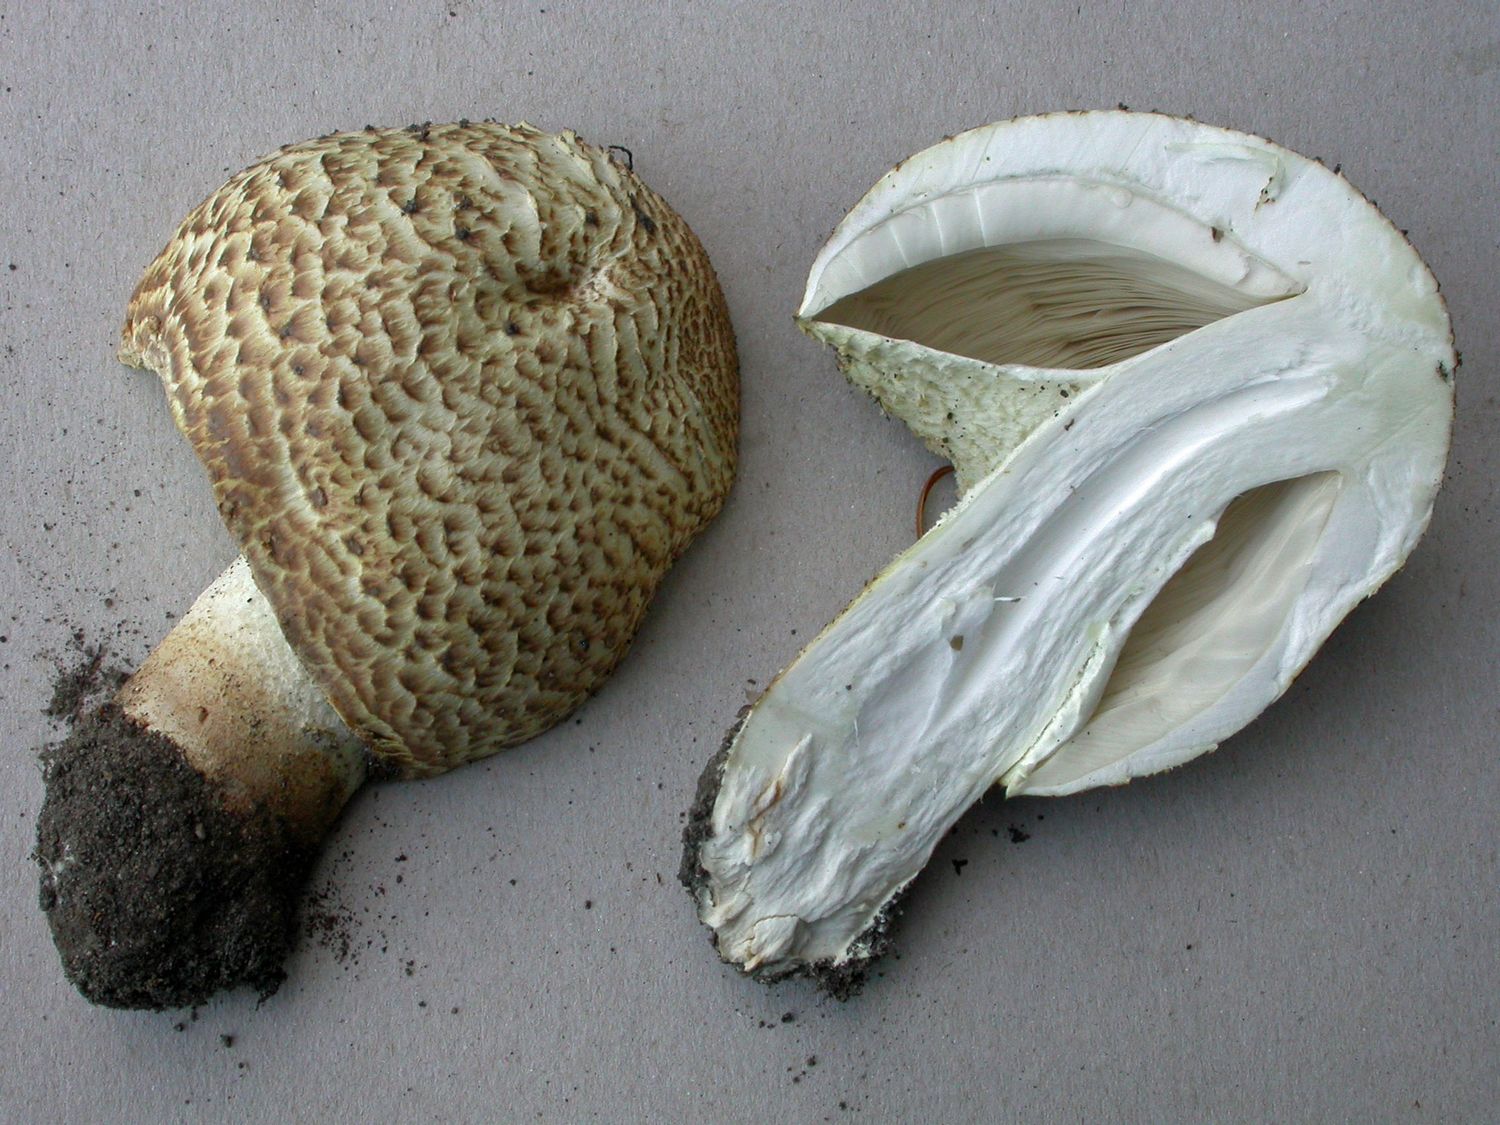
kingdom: Fungi
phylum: Basidiomycota
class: Agaricomycetes
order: Agaricales
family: Agaricaceae
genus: Agaricus
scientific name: Agaricus augustus
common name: prægtig champignon
